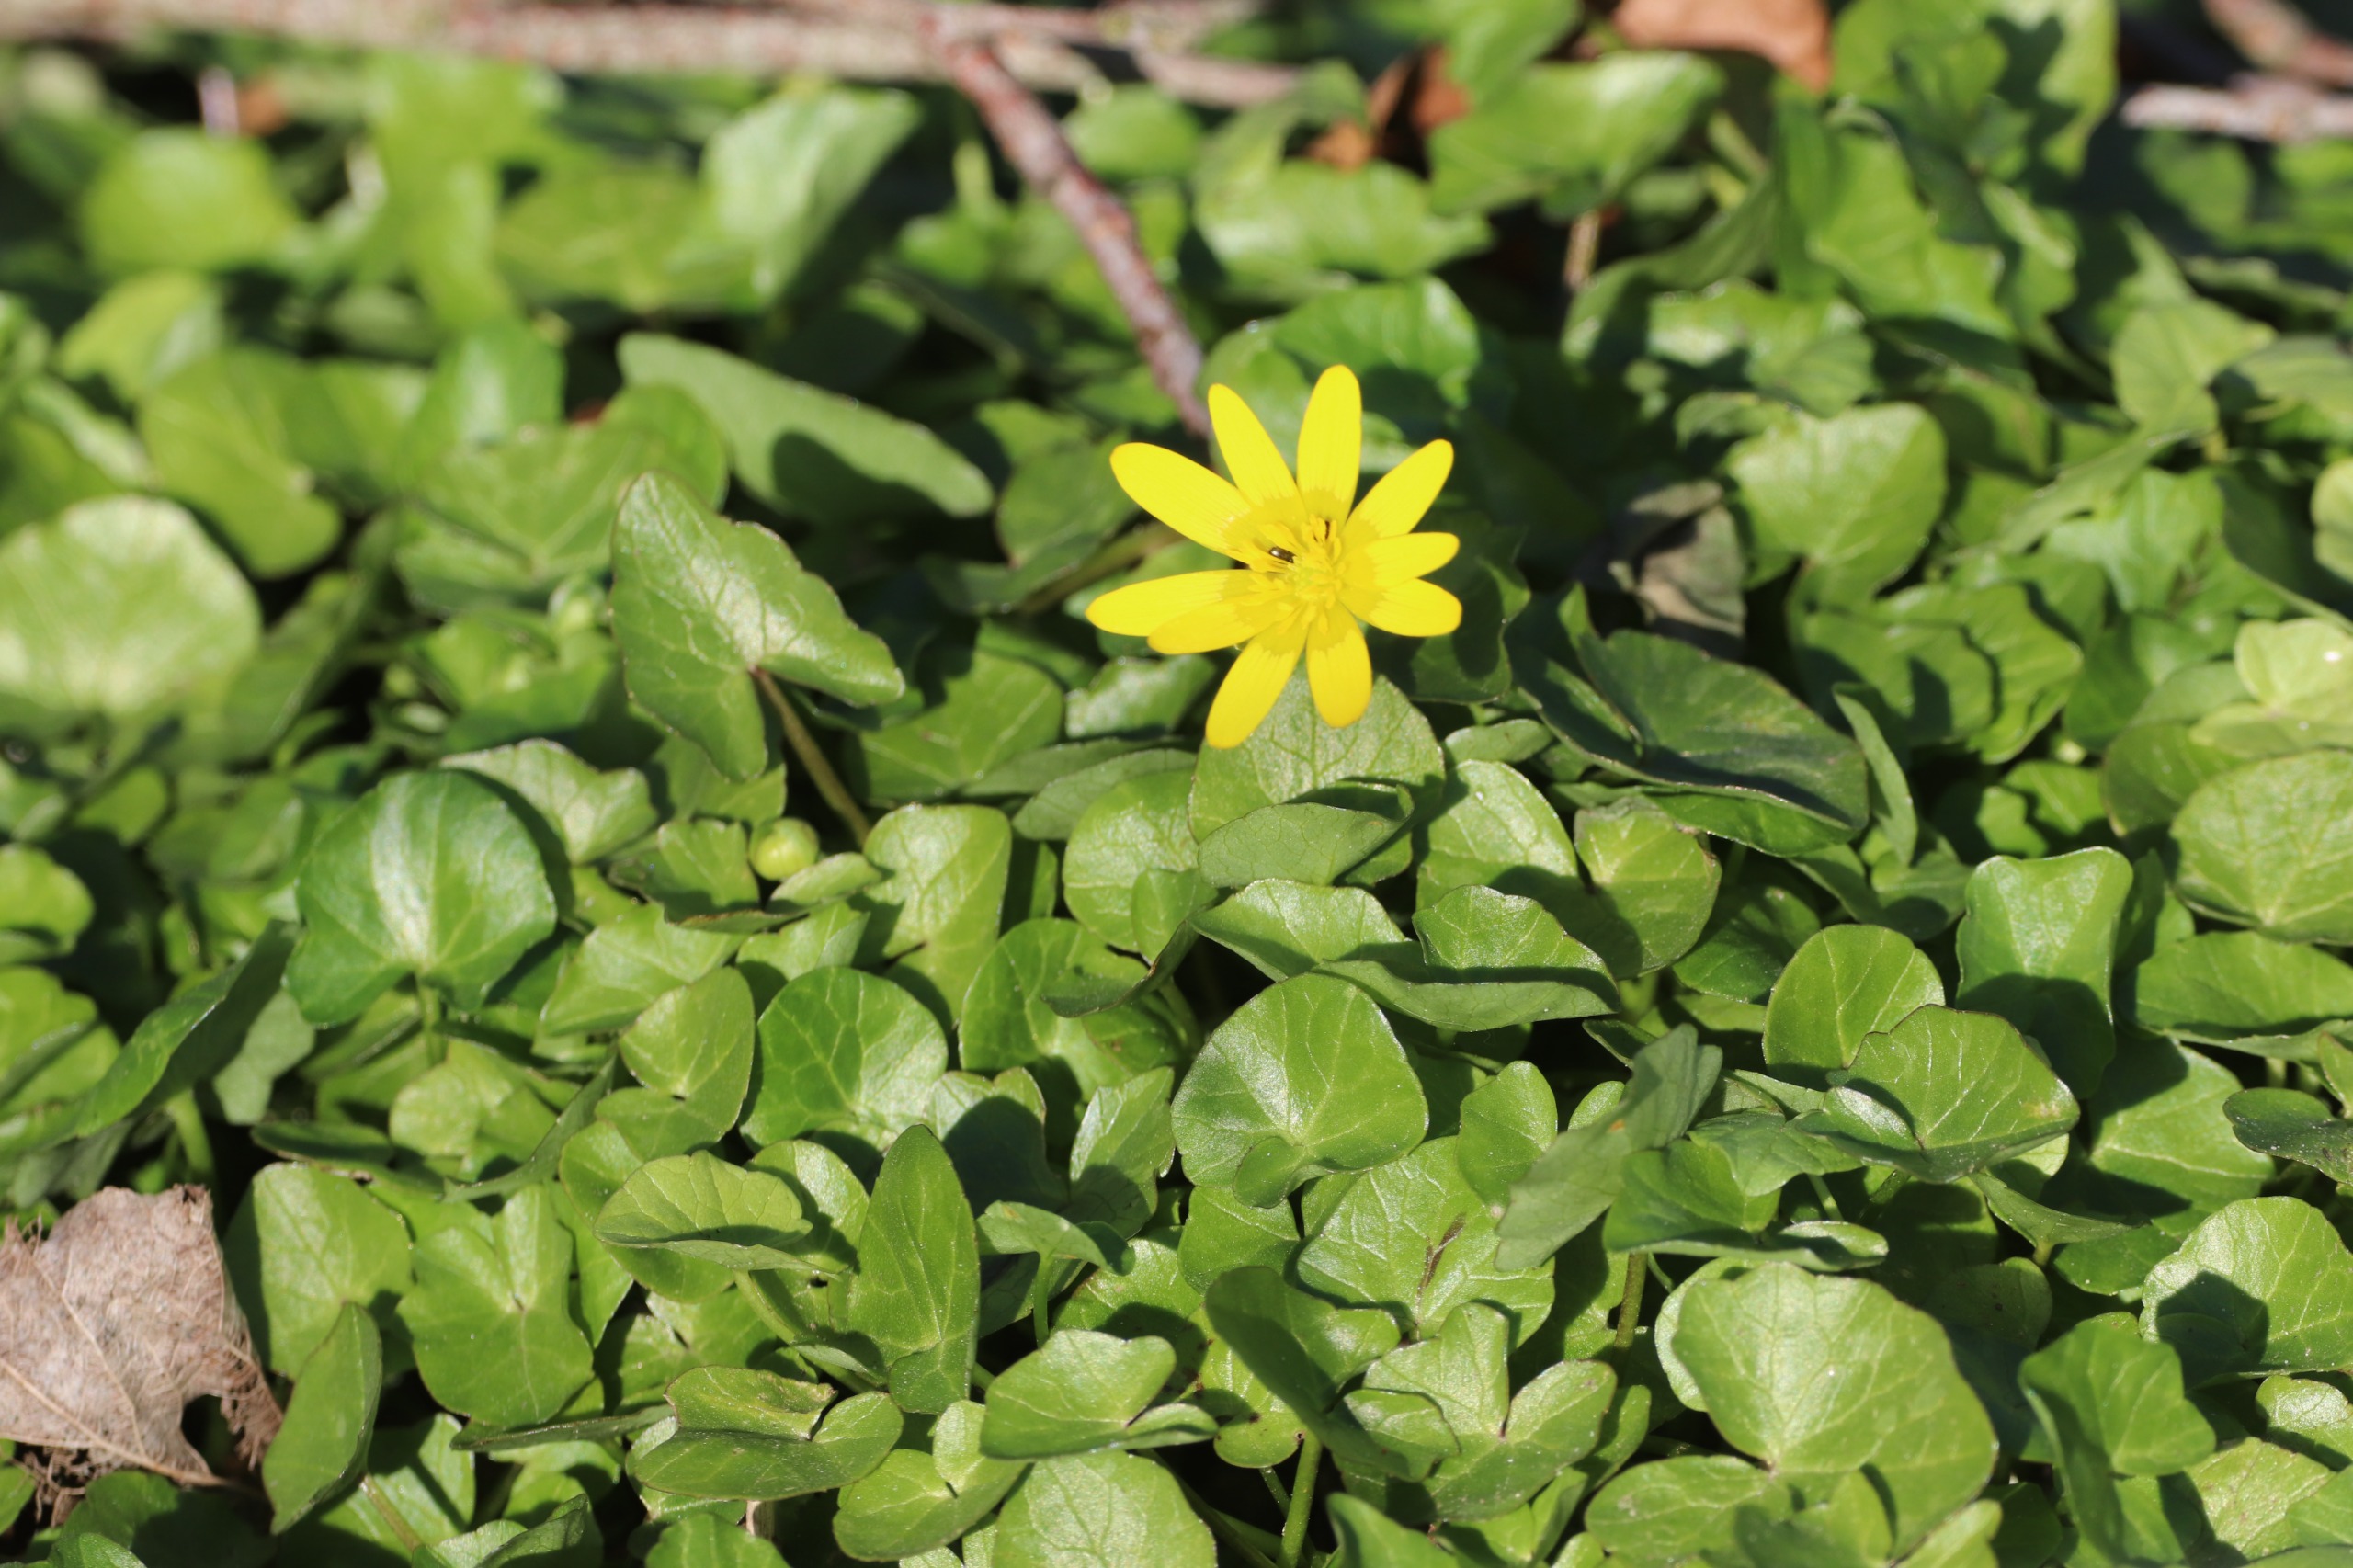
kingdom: Plantae
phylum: Tracheophyta
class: Magnoliopsida
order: Ranunculales
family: Ranunculaceae
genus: Ficaria
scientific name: Ficaria verna
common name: Vorterod
